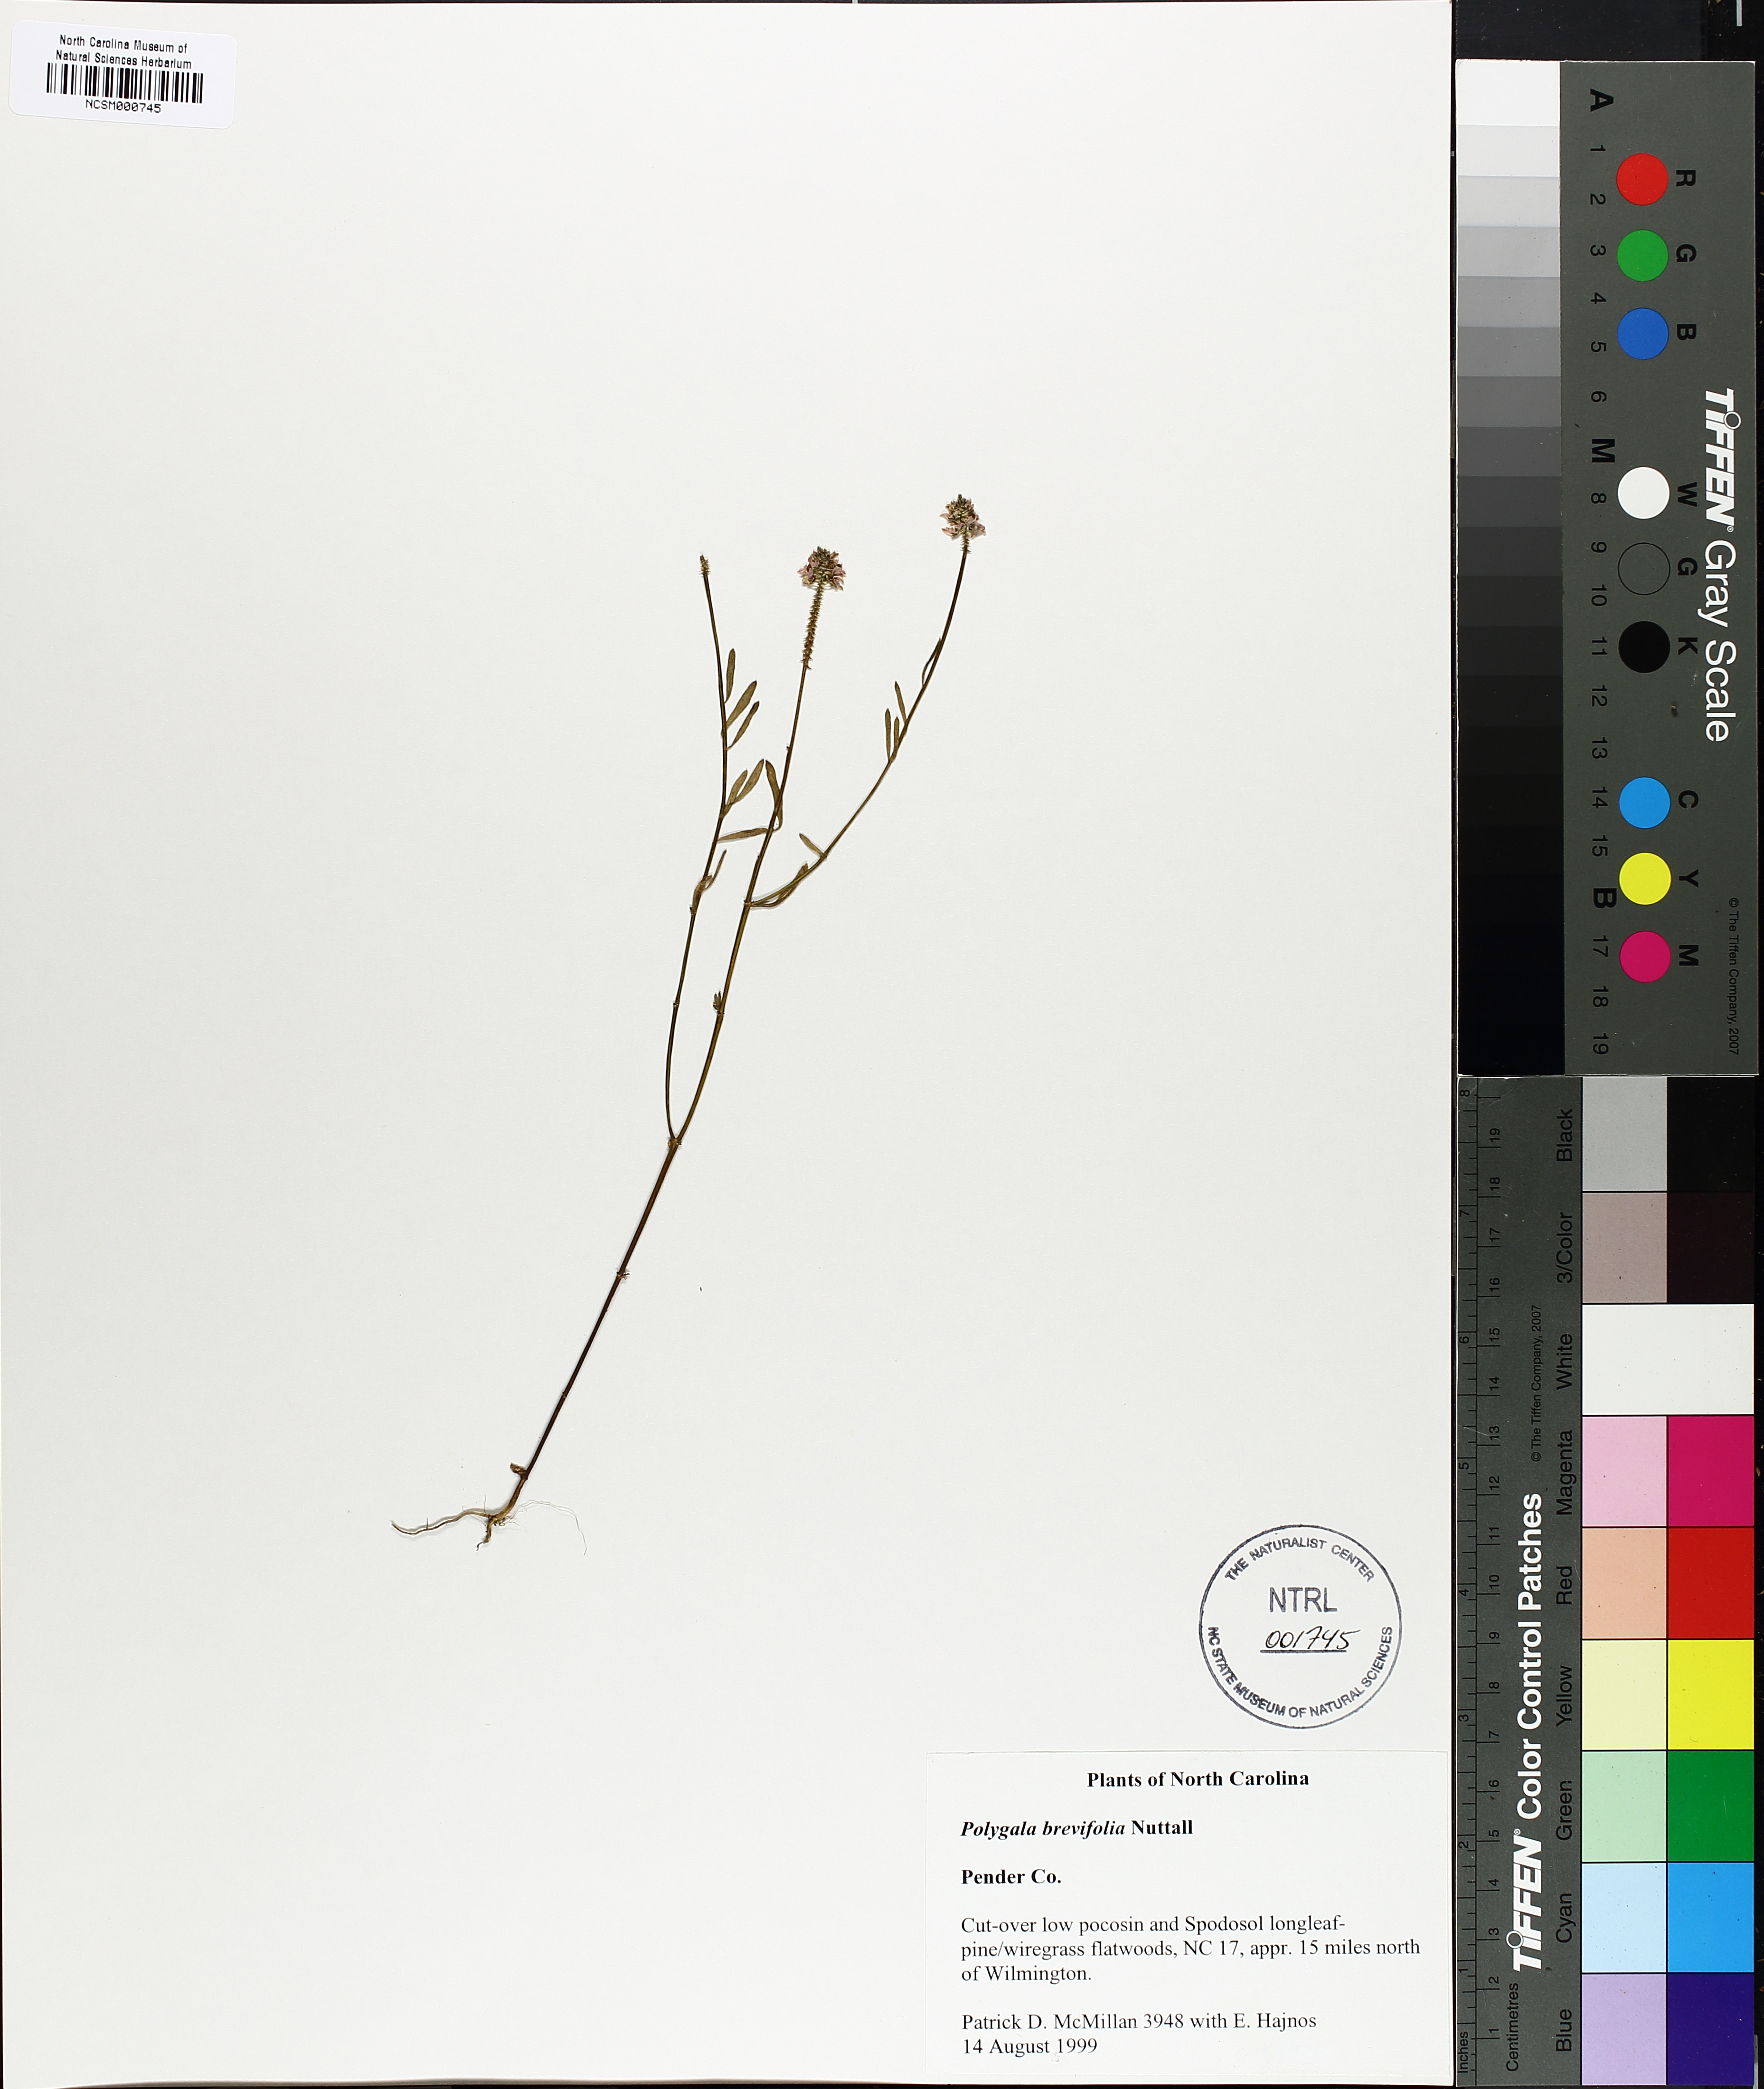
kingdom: Plantae
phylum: Tracheophyta
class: Magnoliopsida
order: Fabales
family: Polygalaceae
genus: Polygala
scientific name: Polygala brevifolia
